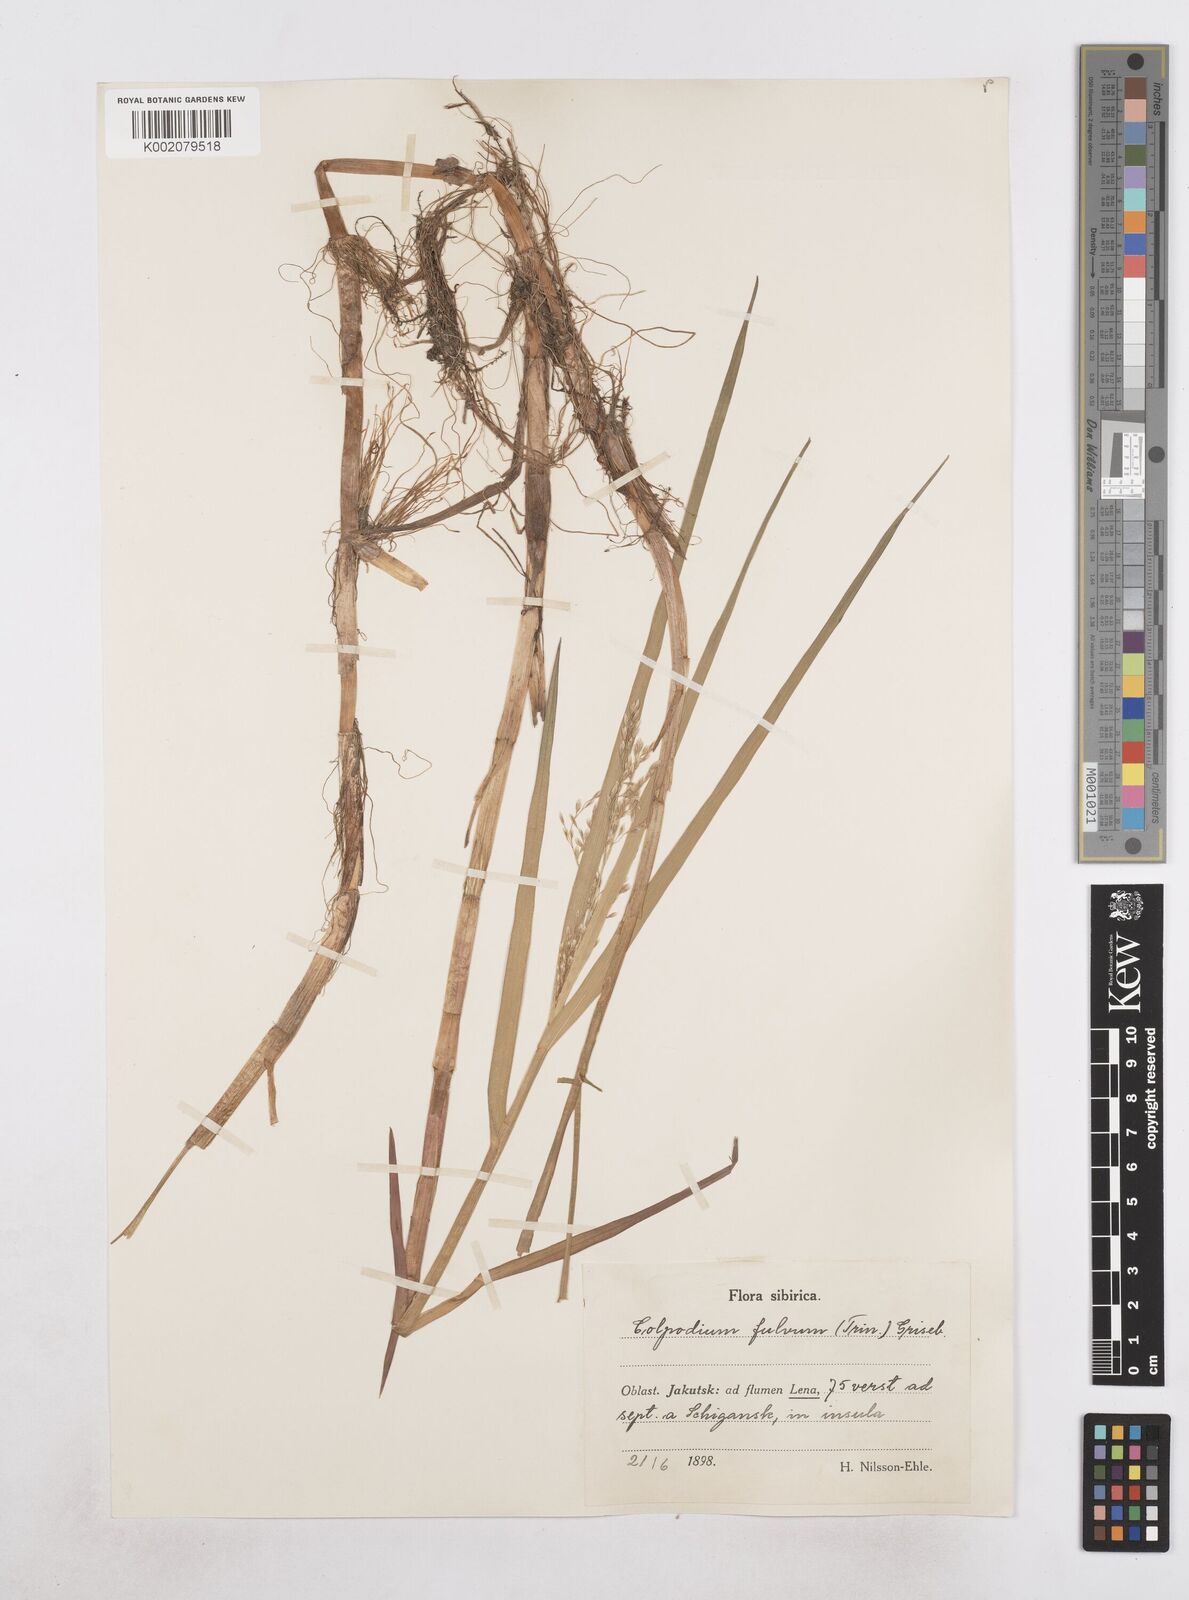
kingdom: Plantae
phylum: Tracheophyta
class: Liliopsida
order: Poales
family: Poaceae
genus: Dupontia
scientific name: Dupontia fulva
